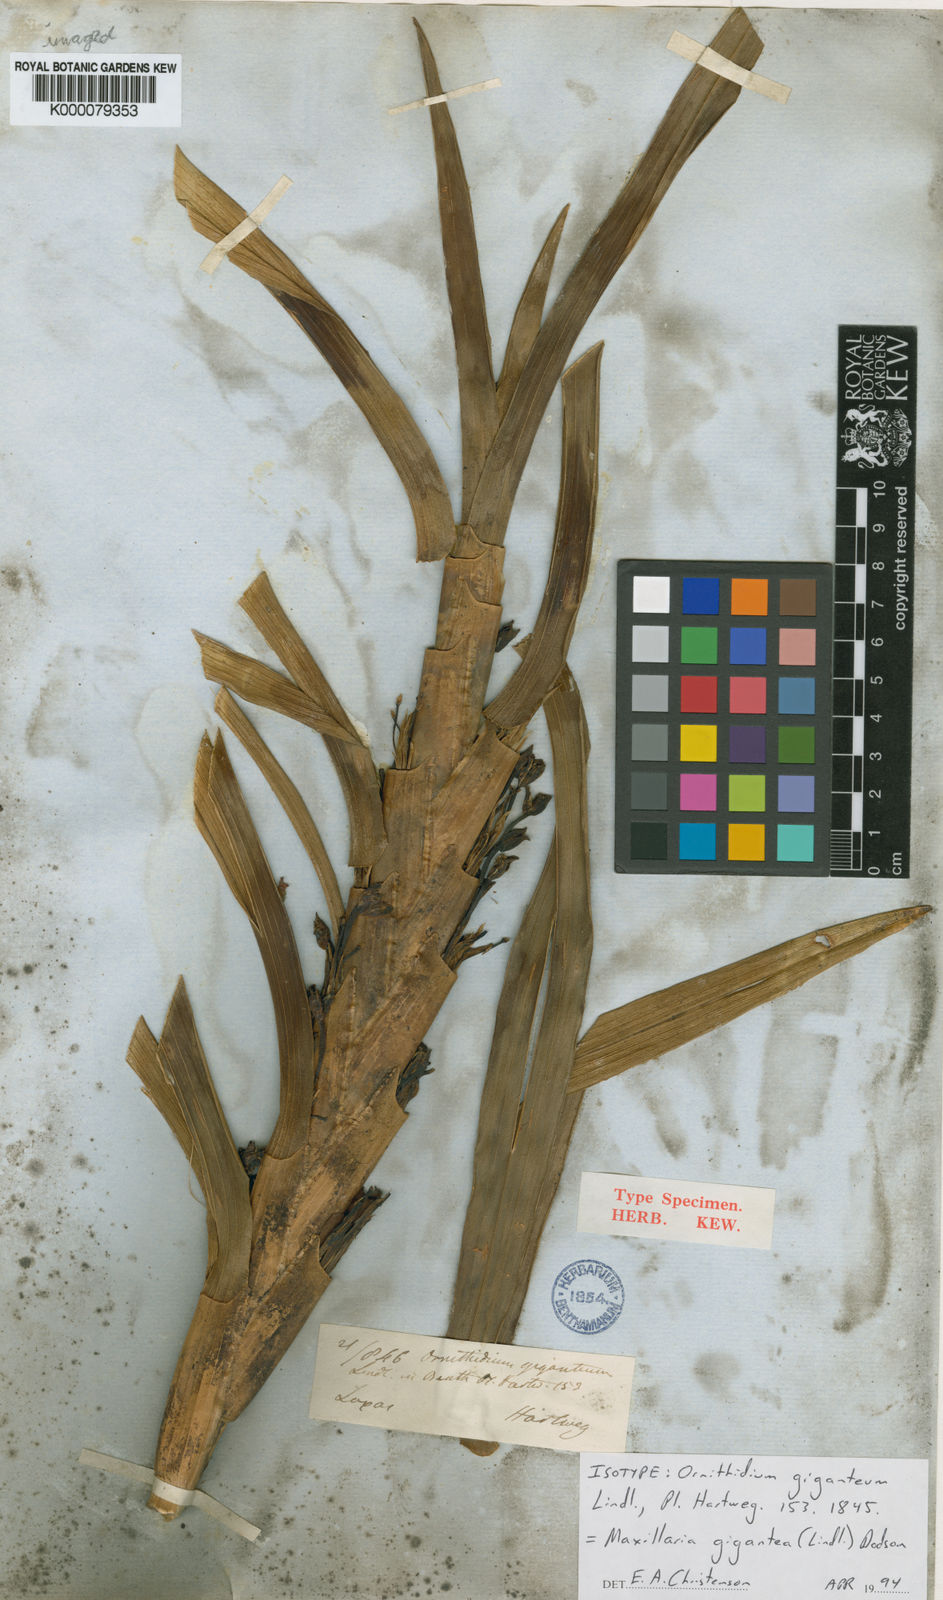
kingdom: Plantae
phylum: Tracheophyta
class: Liliopsida
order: Asparagales
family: Orchidaceae
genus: Maxillaria
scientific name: Maxillaria cordyline
